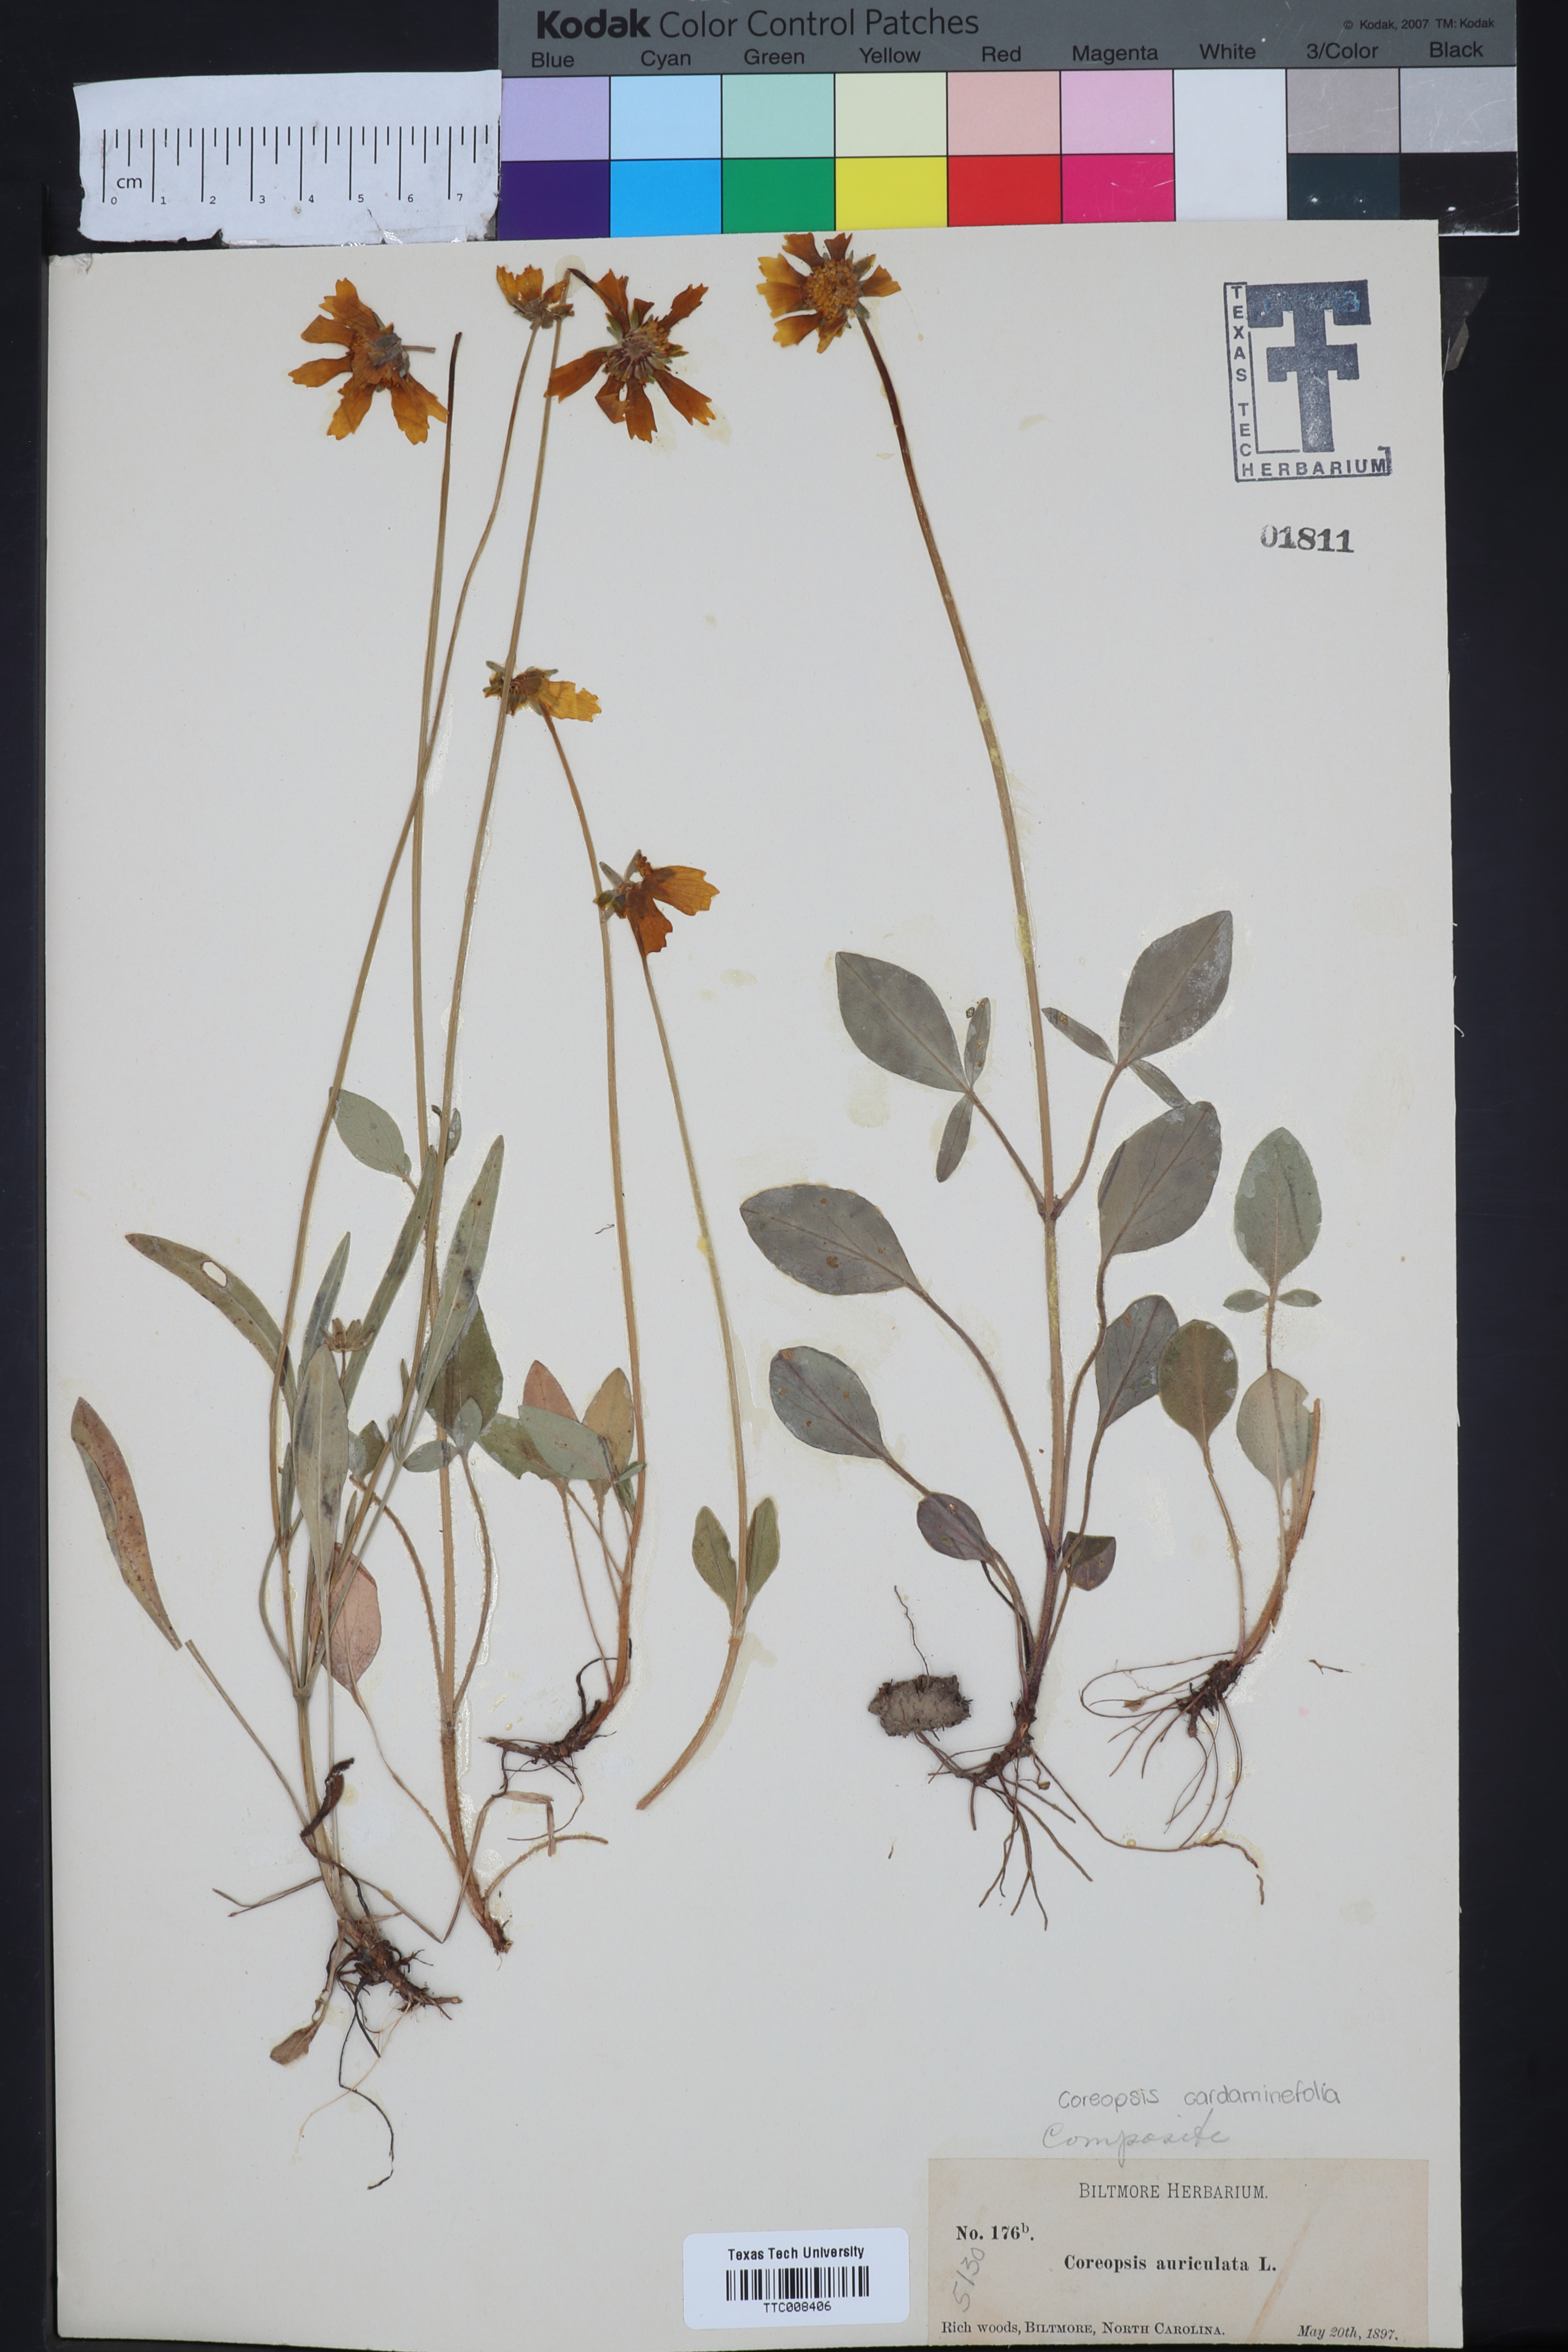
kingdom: Plantae
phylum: Tracheophyta
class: Magnoliopsida
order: Asterales
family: Asteraceae
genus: Coreopsis
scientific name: Coreopsis auriculata
